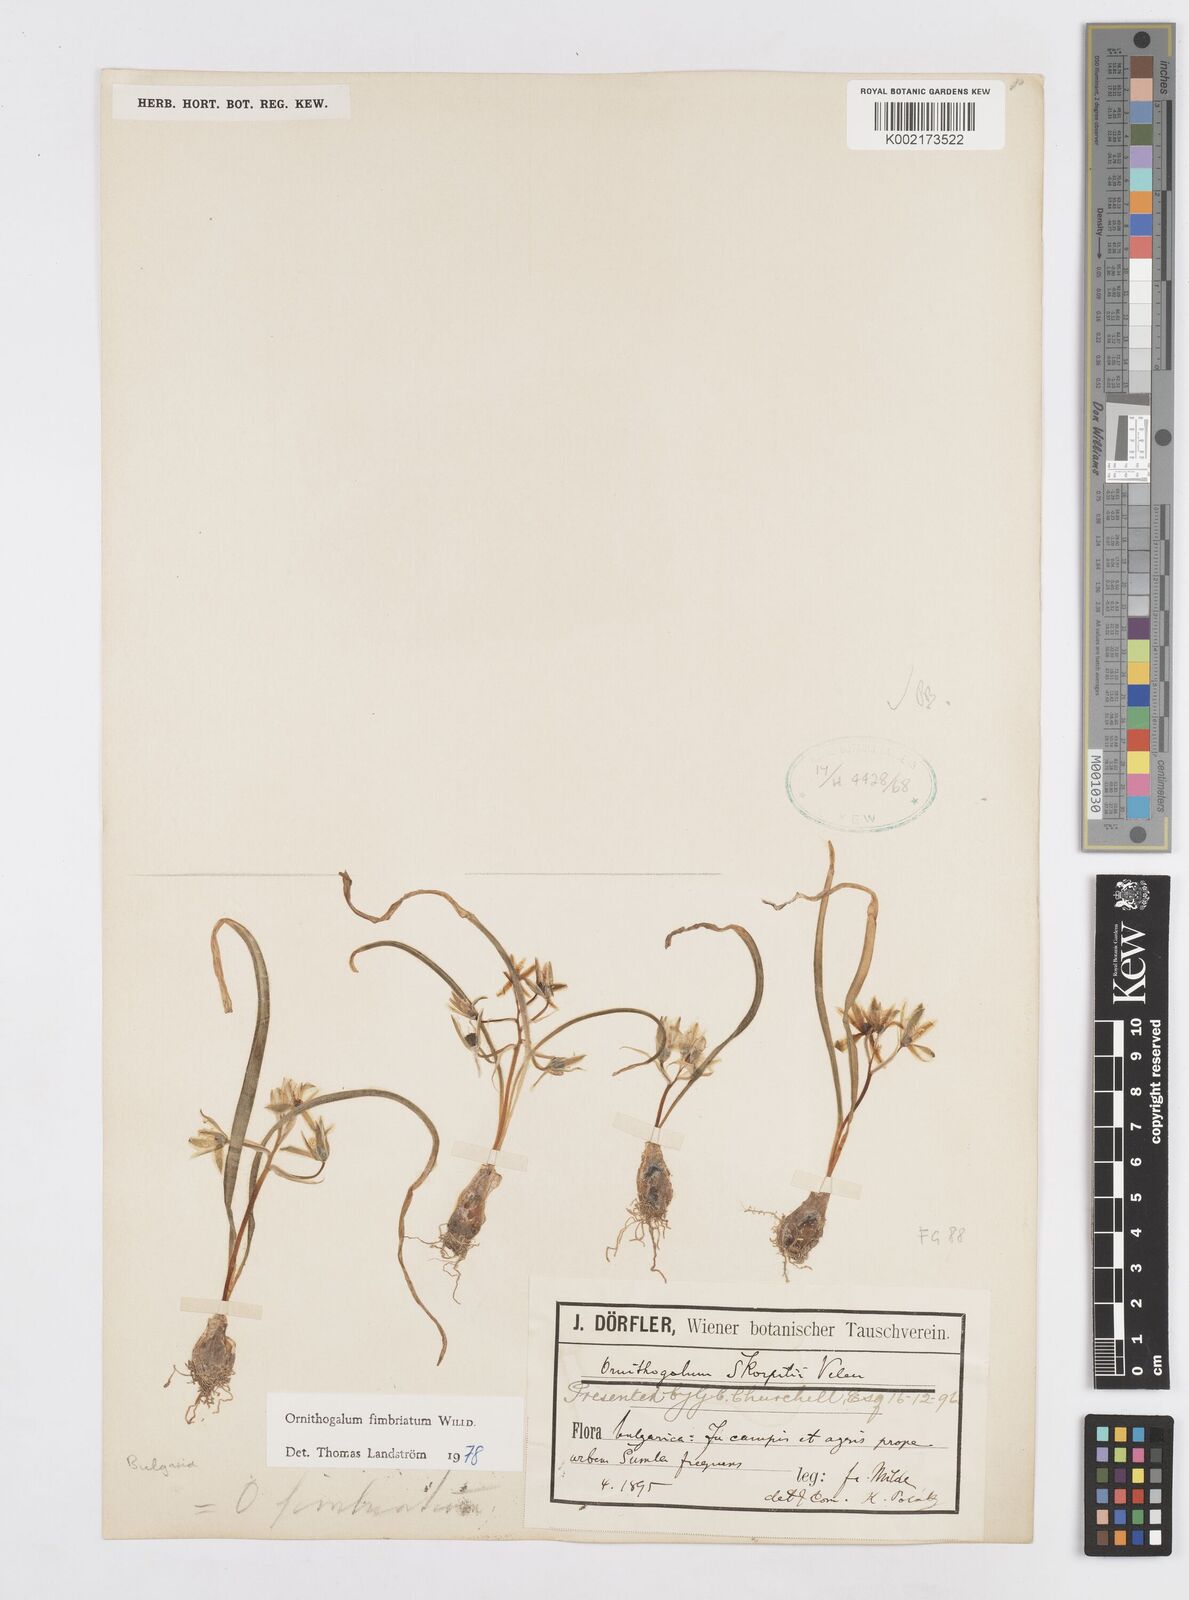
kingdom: Plantae
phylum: Tracheophyta
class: Liliopsida
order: Asparagales
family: Asparagaceae
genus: Ornithogalum
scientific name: Ornithogalum fimbriatum
